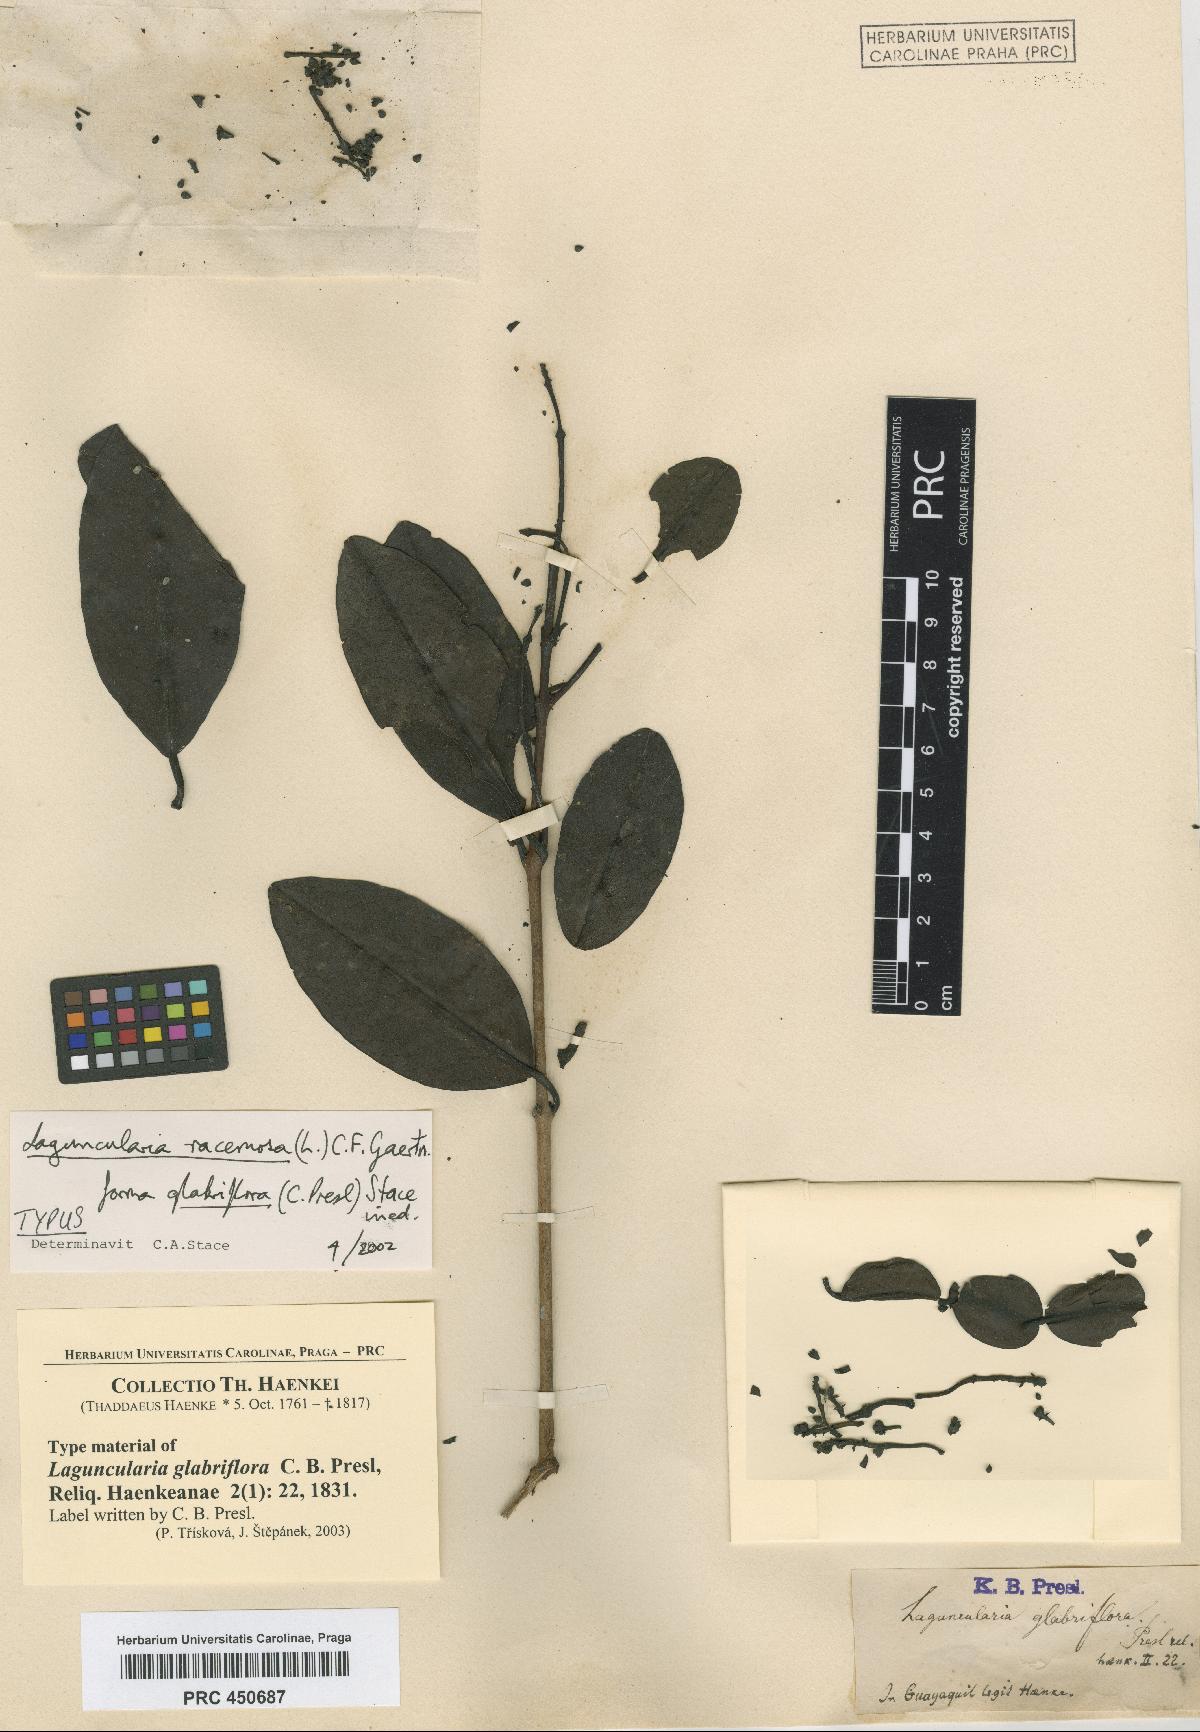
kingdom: Plantae
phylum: Tracheophyta
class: Magnoliopsida
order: Myrtales
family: Combretaceae
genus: Laguncularia
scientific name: Laguncularia racemosa
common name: White mangrove
